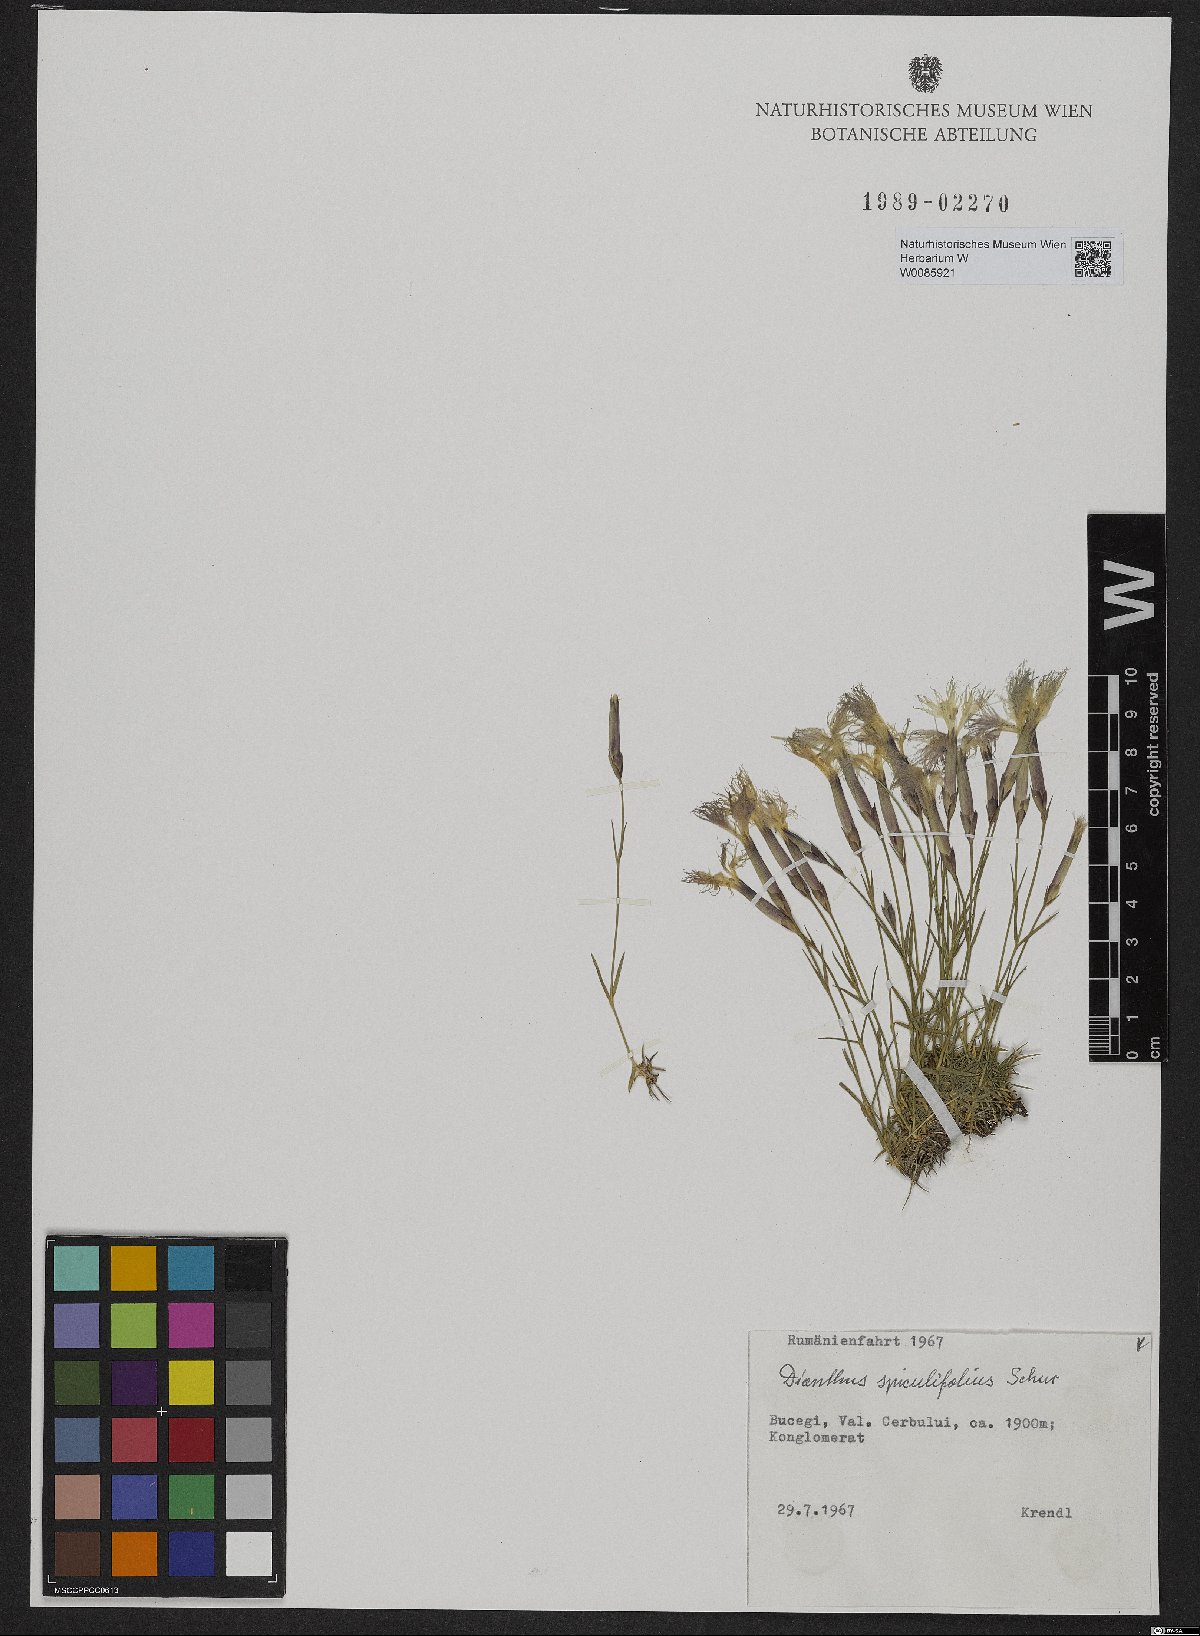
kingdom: Plantae
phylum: Tracheophyta
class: Magnoliopsida
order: Caryophyllales
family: Caryophyllaceae
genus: Dianthus
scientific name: Dianthus spiculifolius
